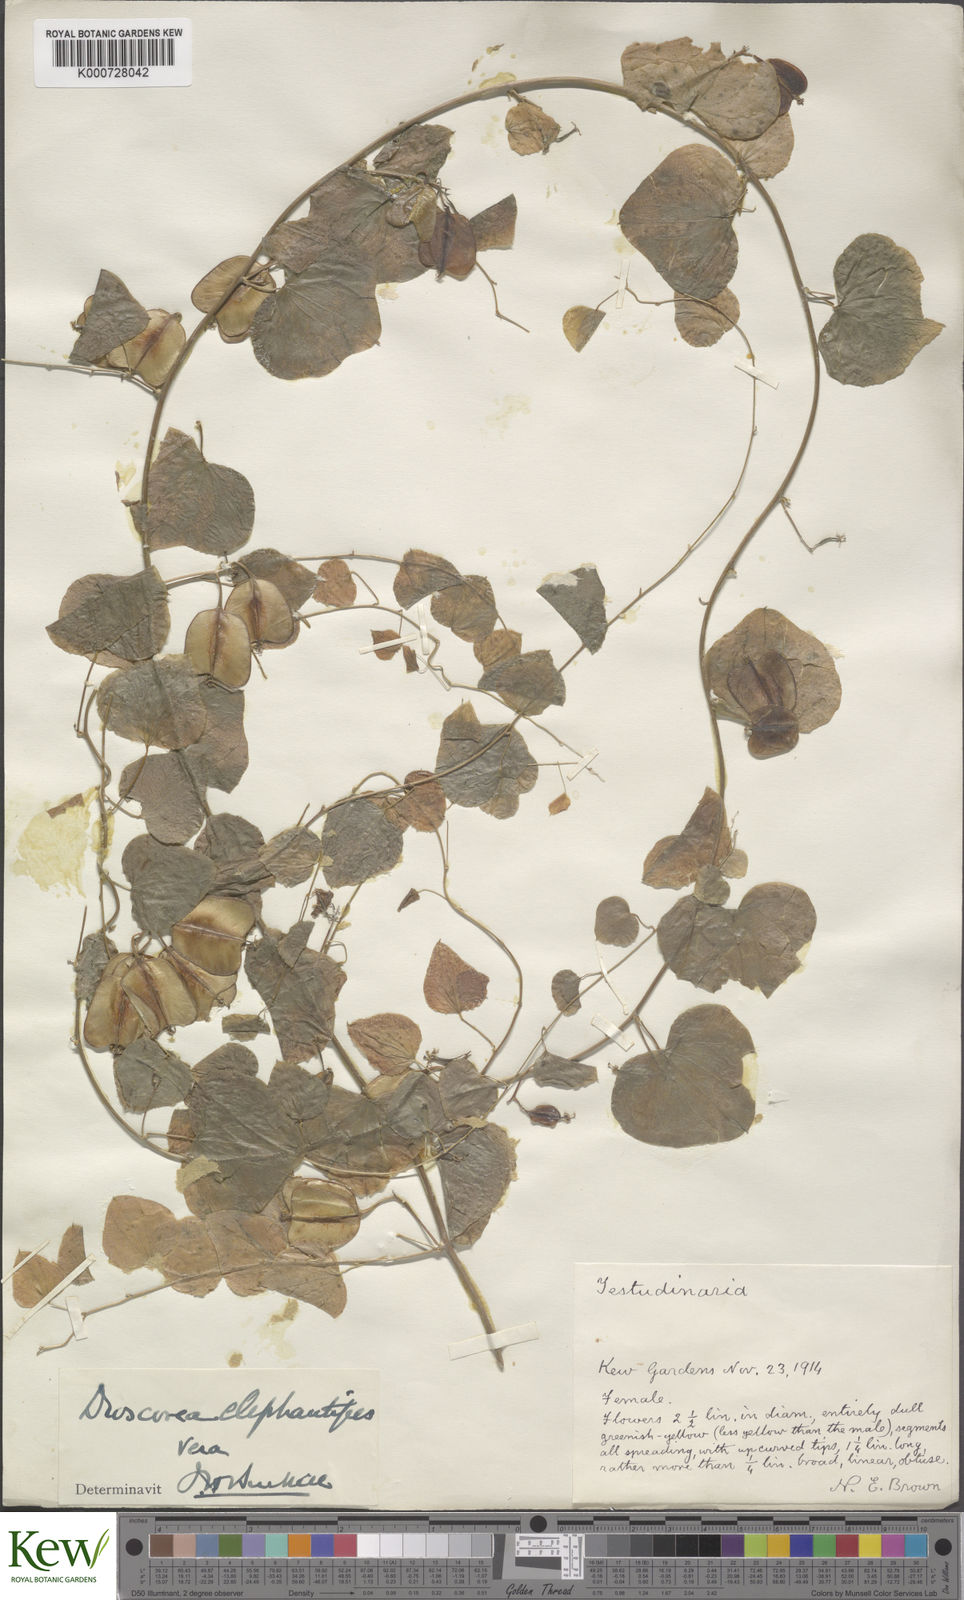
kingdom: Plantae
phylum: Tracheophyta
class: Liliopsida
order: Dioscoreales
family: Dioscoreaceae
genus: Dioscorea
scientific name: Dioscorea
